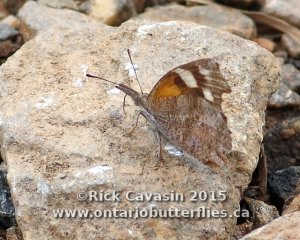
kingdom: Animalia
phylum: Arthropoda
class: Insecta
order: Lepidoptera
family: Nymphalidae
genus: Libytheana
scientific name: Libytheana carinenta
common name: American Snout
